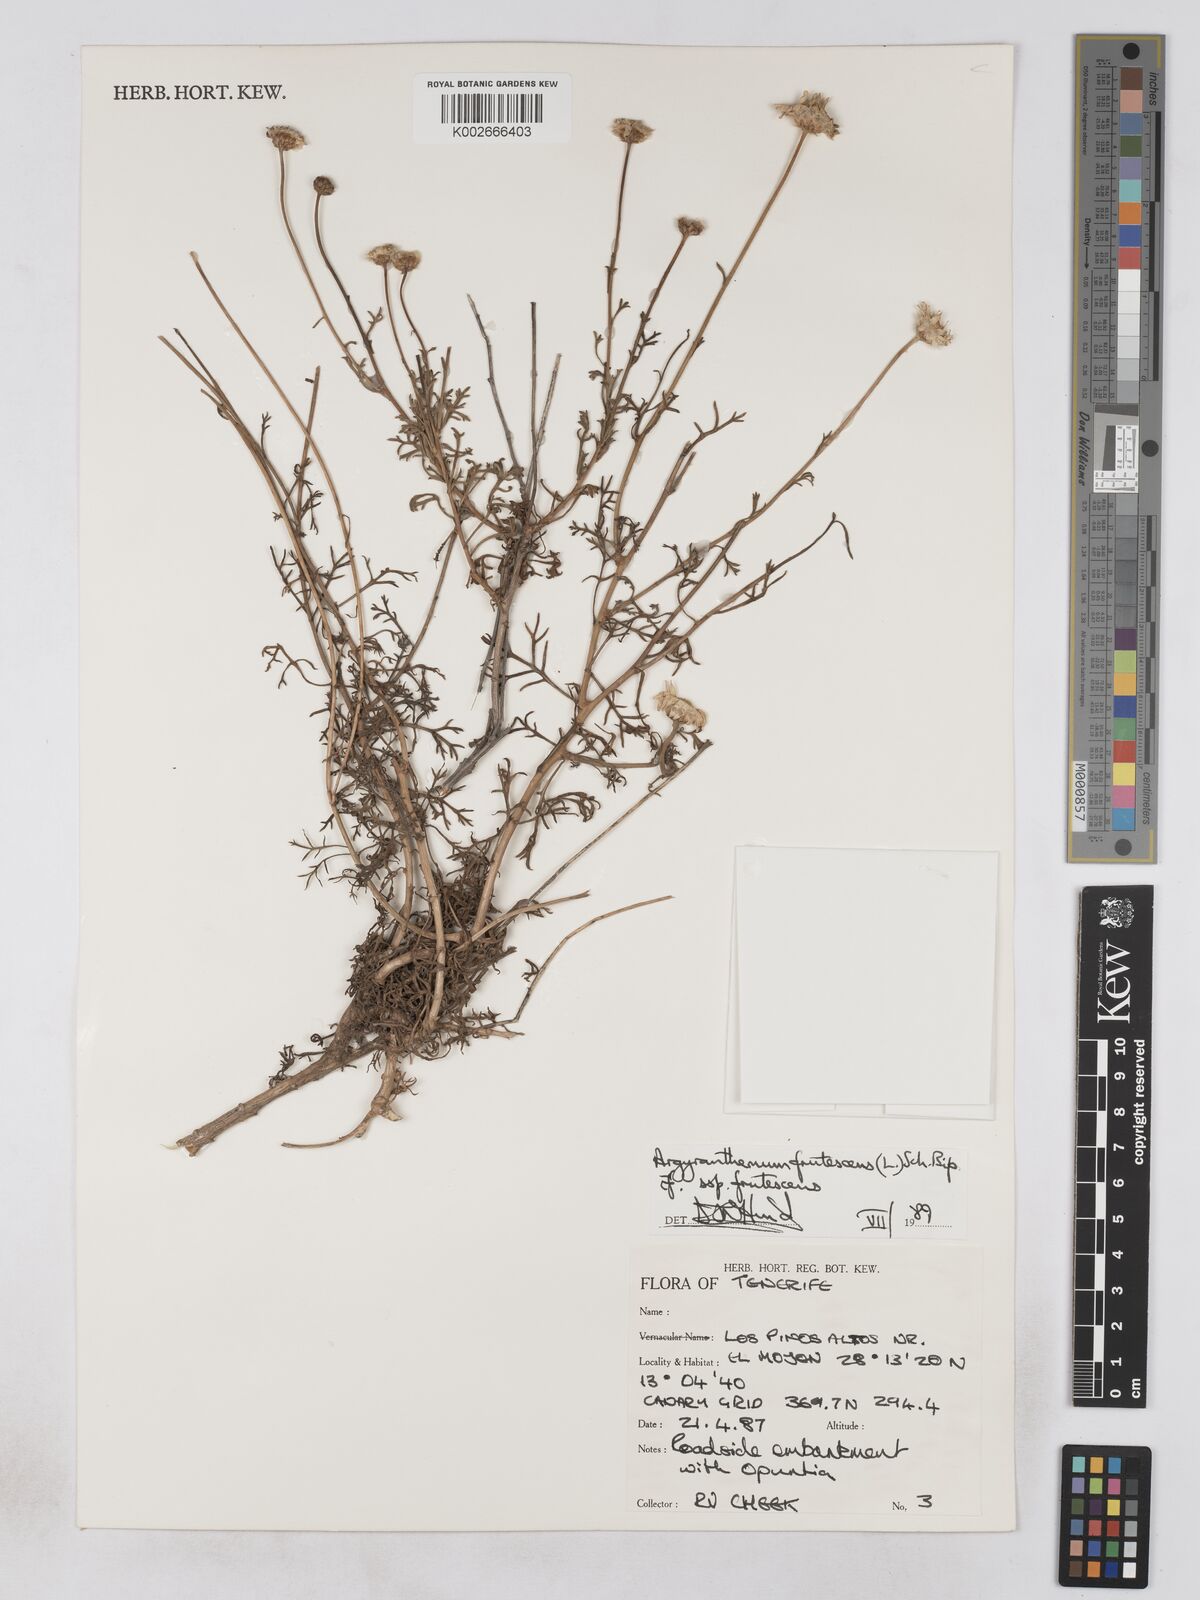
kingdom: Plantae
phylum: Tracheophyta
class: Magnoliopsida
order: Asterales
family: Asteraceae
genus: Argyranthemum
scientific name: Argyranthemum frutescens
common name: Paris daisy
